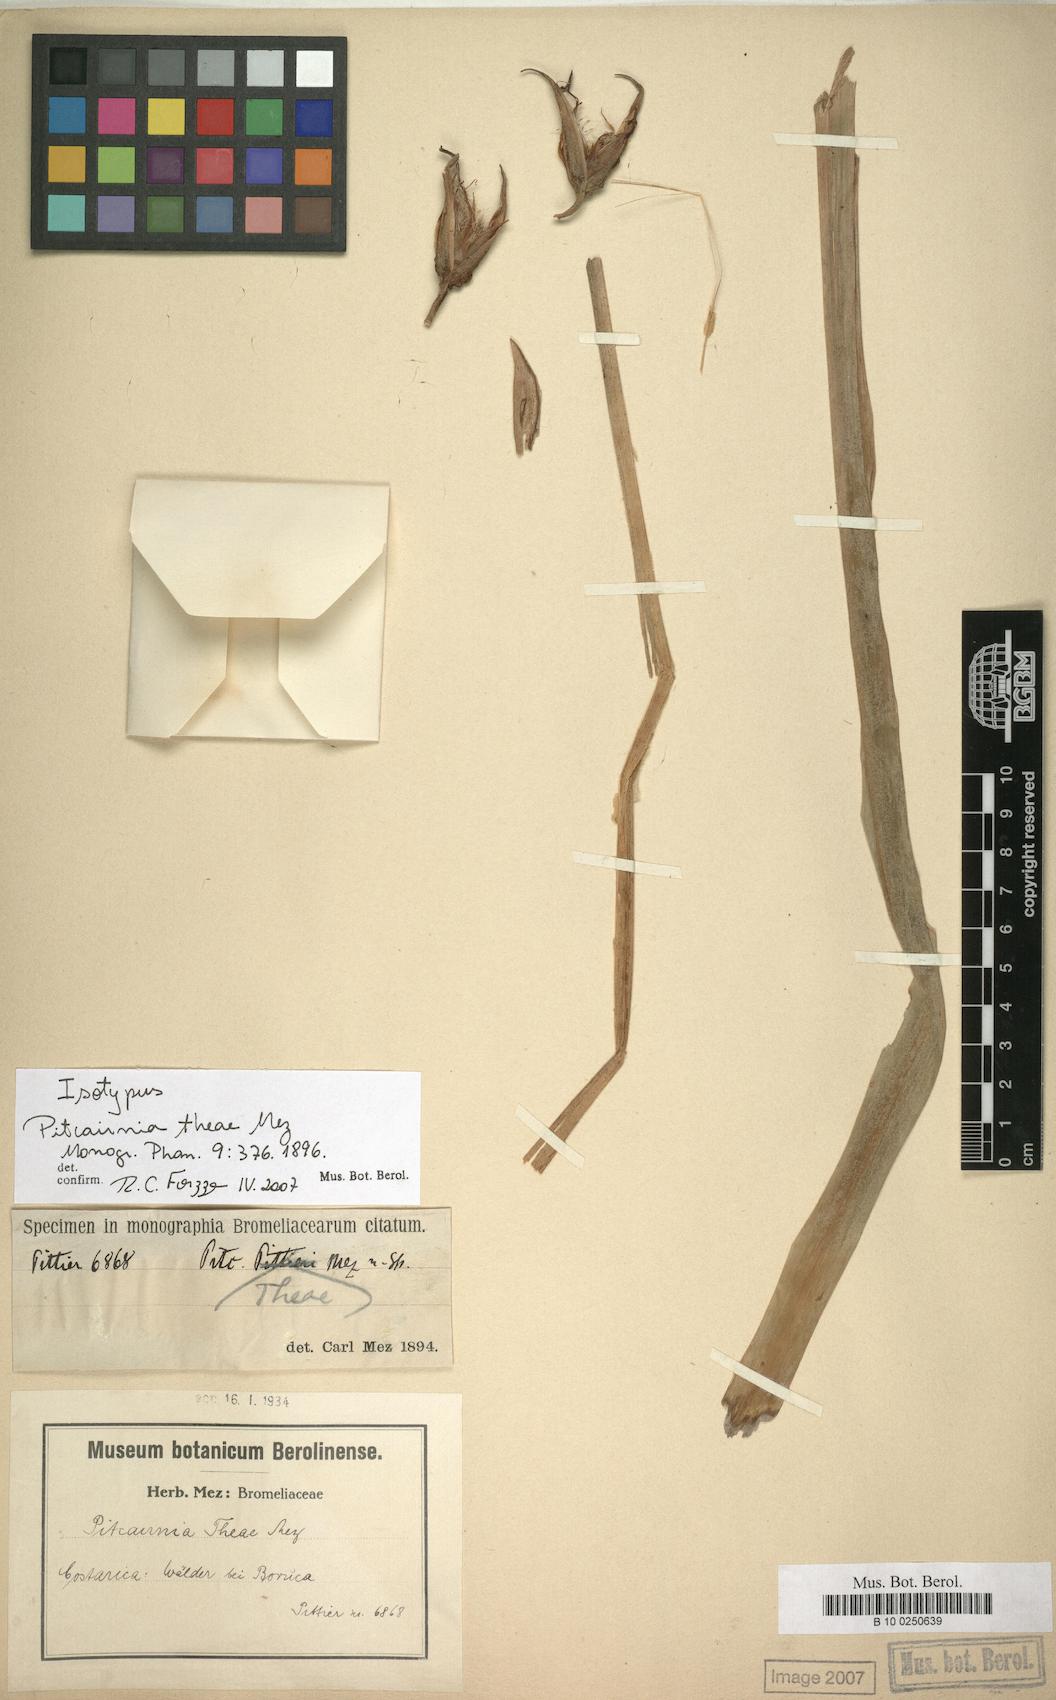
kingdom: Plantae
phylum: Tracheophyta
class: Liliopsida
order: Poales
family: Bromeliaceae
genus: Pitcairnia
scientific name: Pitcairnia megasepala
